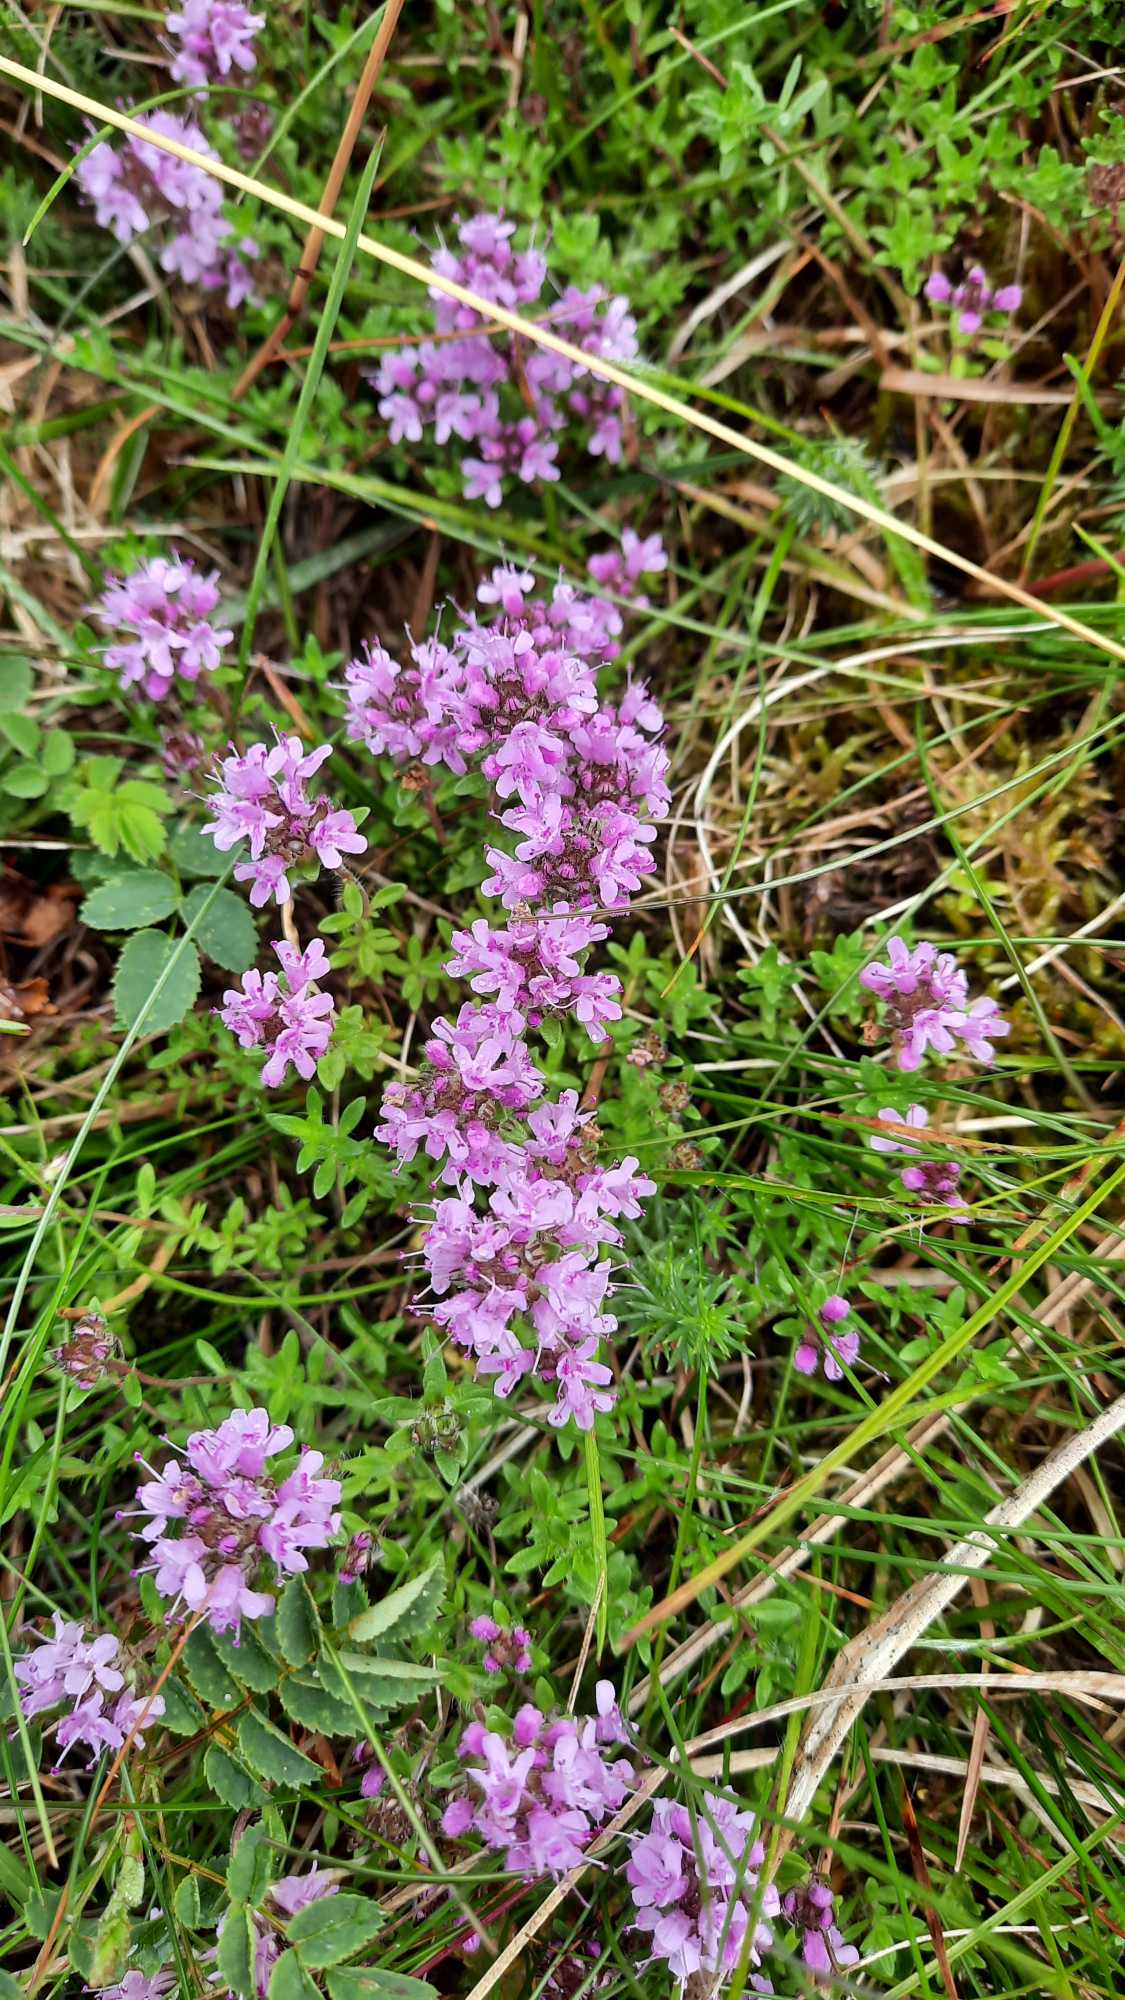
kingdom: Plantae
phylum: Tracheophyta
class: Magnoliopsida
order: Lamiales
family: Lamiaceae
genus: Thymus
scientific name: Thymus serpyllum
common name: Smalbladet timian
